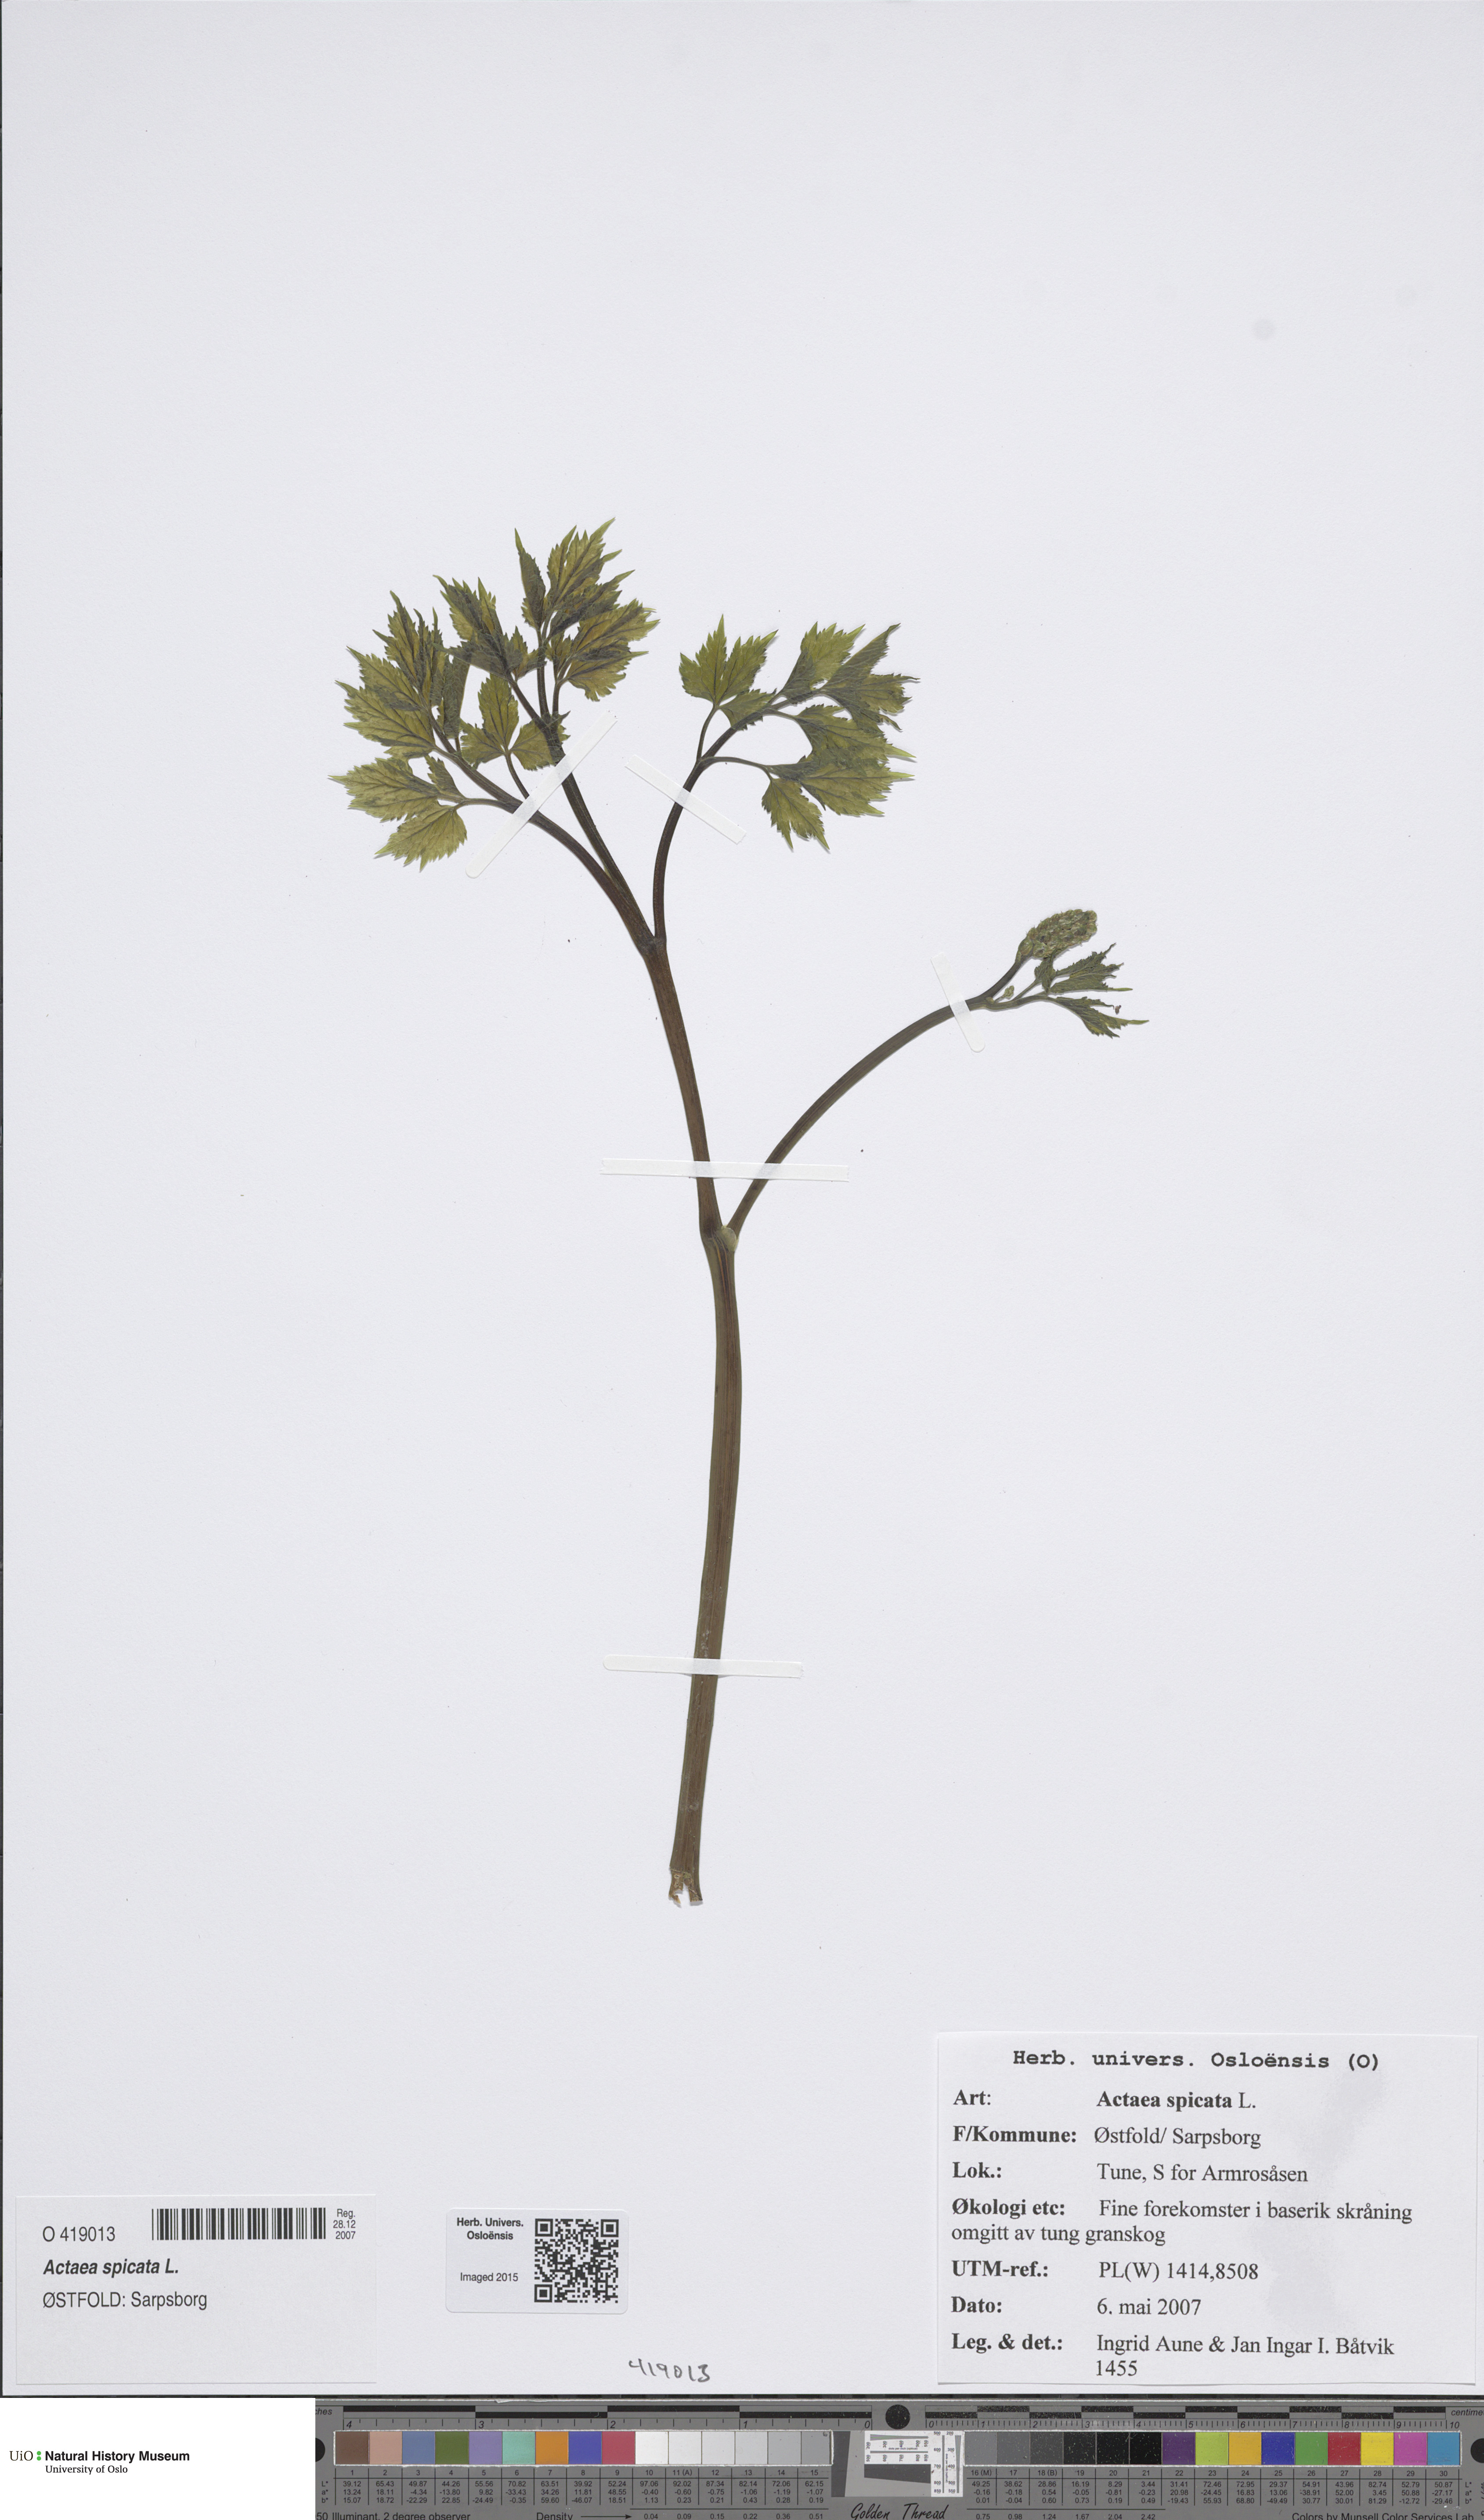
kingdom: Plantae
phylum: Tracheophyta
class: Magnoliopsida
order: Ranunculales
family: Ranunculaceae
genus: Actaea
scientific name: Actaea spicata
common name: Baneberry
